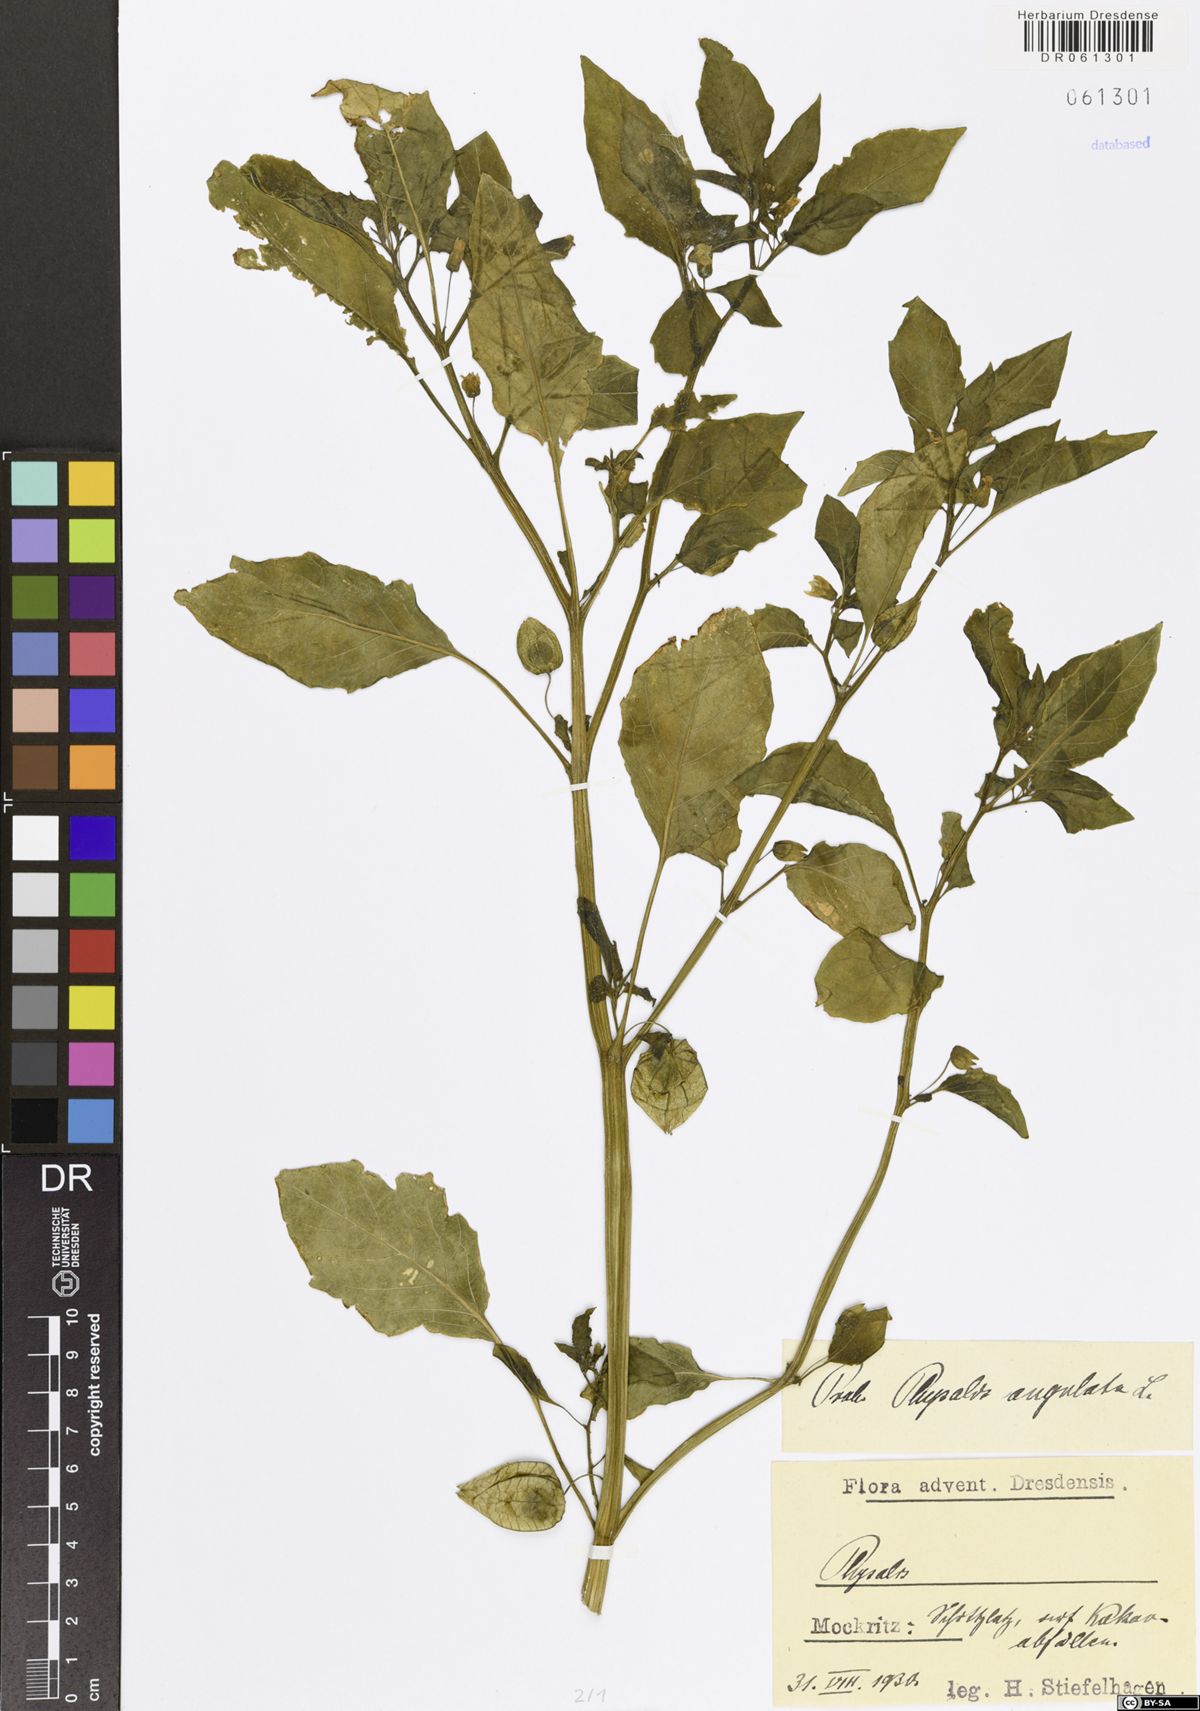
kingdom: Plantae
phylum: Tracheophyta
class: Magnoliopsida
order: Solanales
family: Solanaceae
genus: Physalis
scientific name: Physalis angulata
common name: Angular winter-cherry
